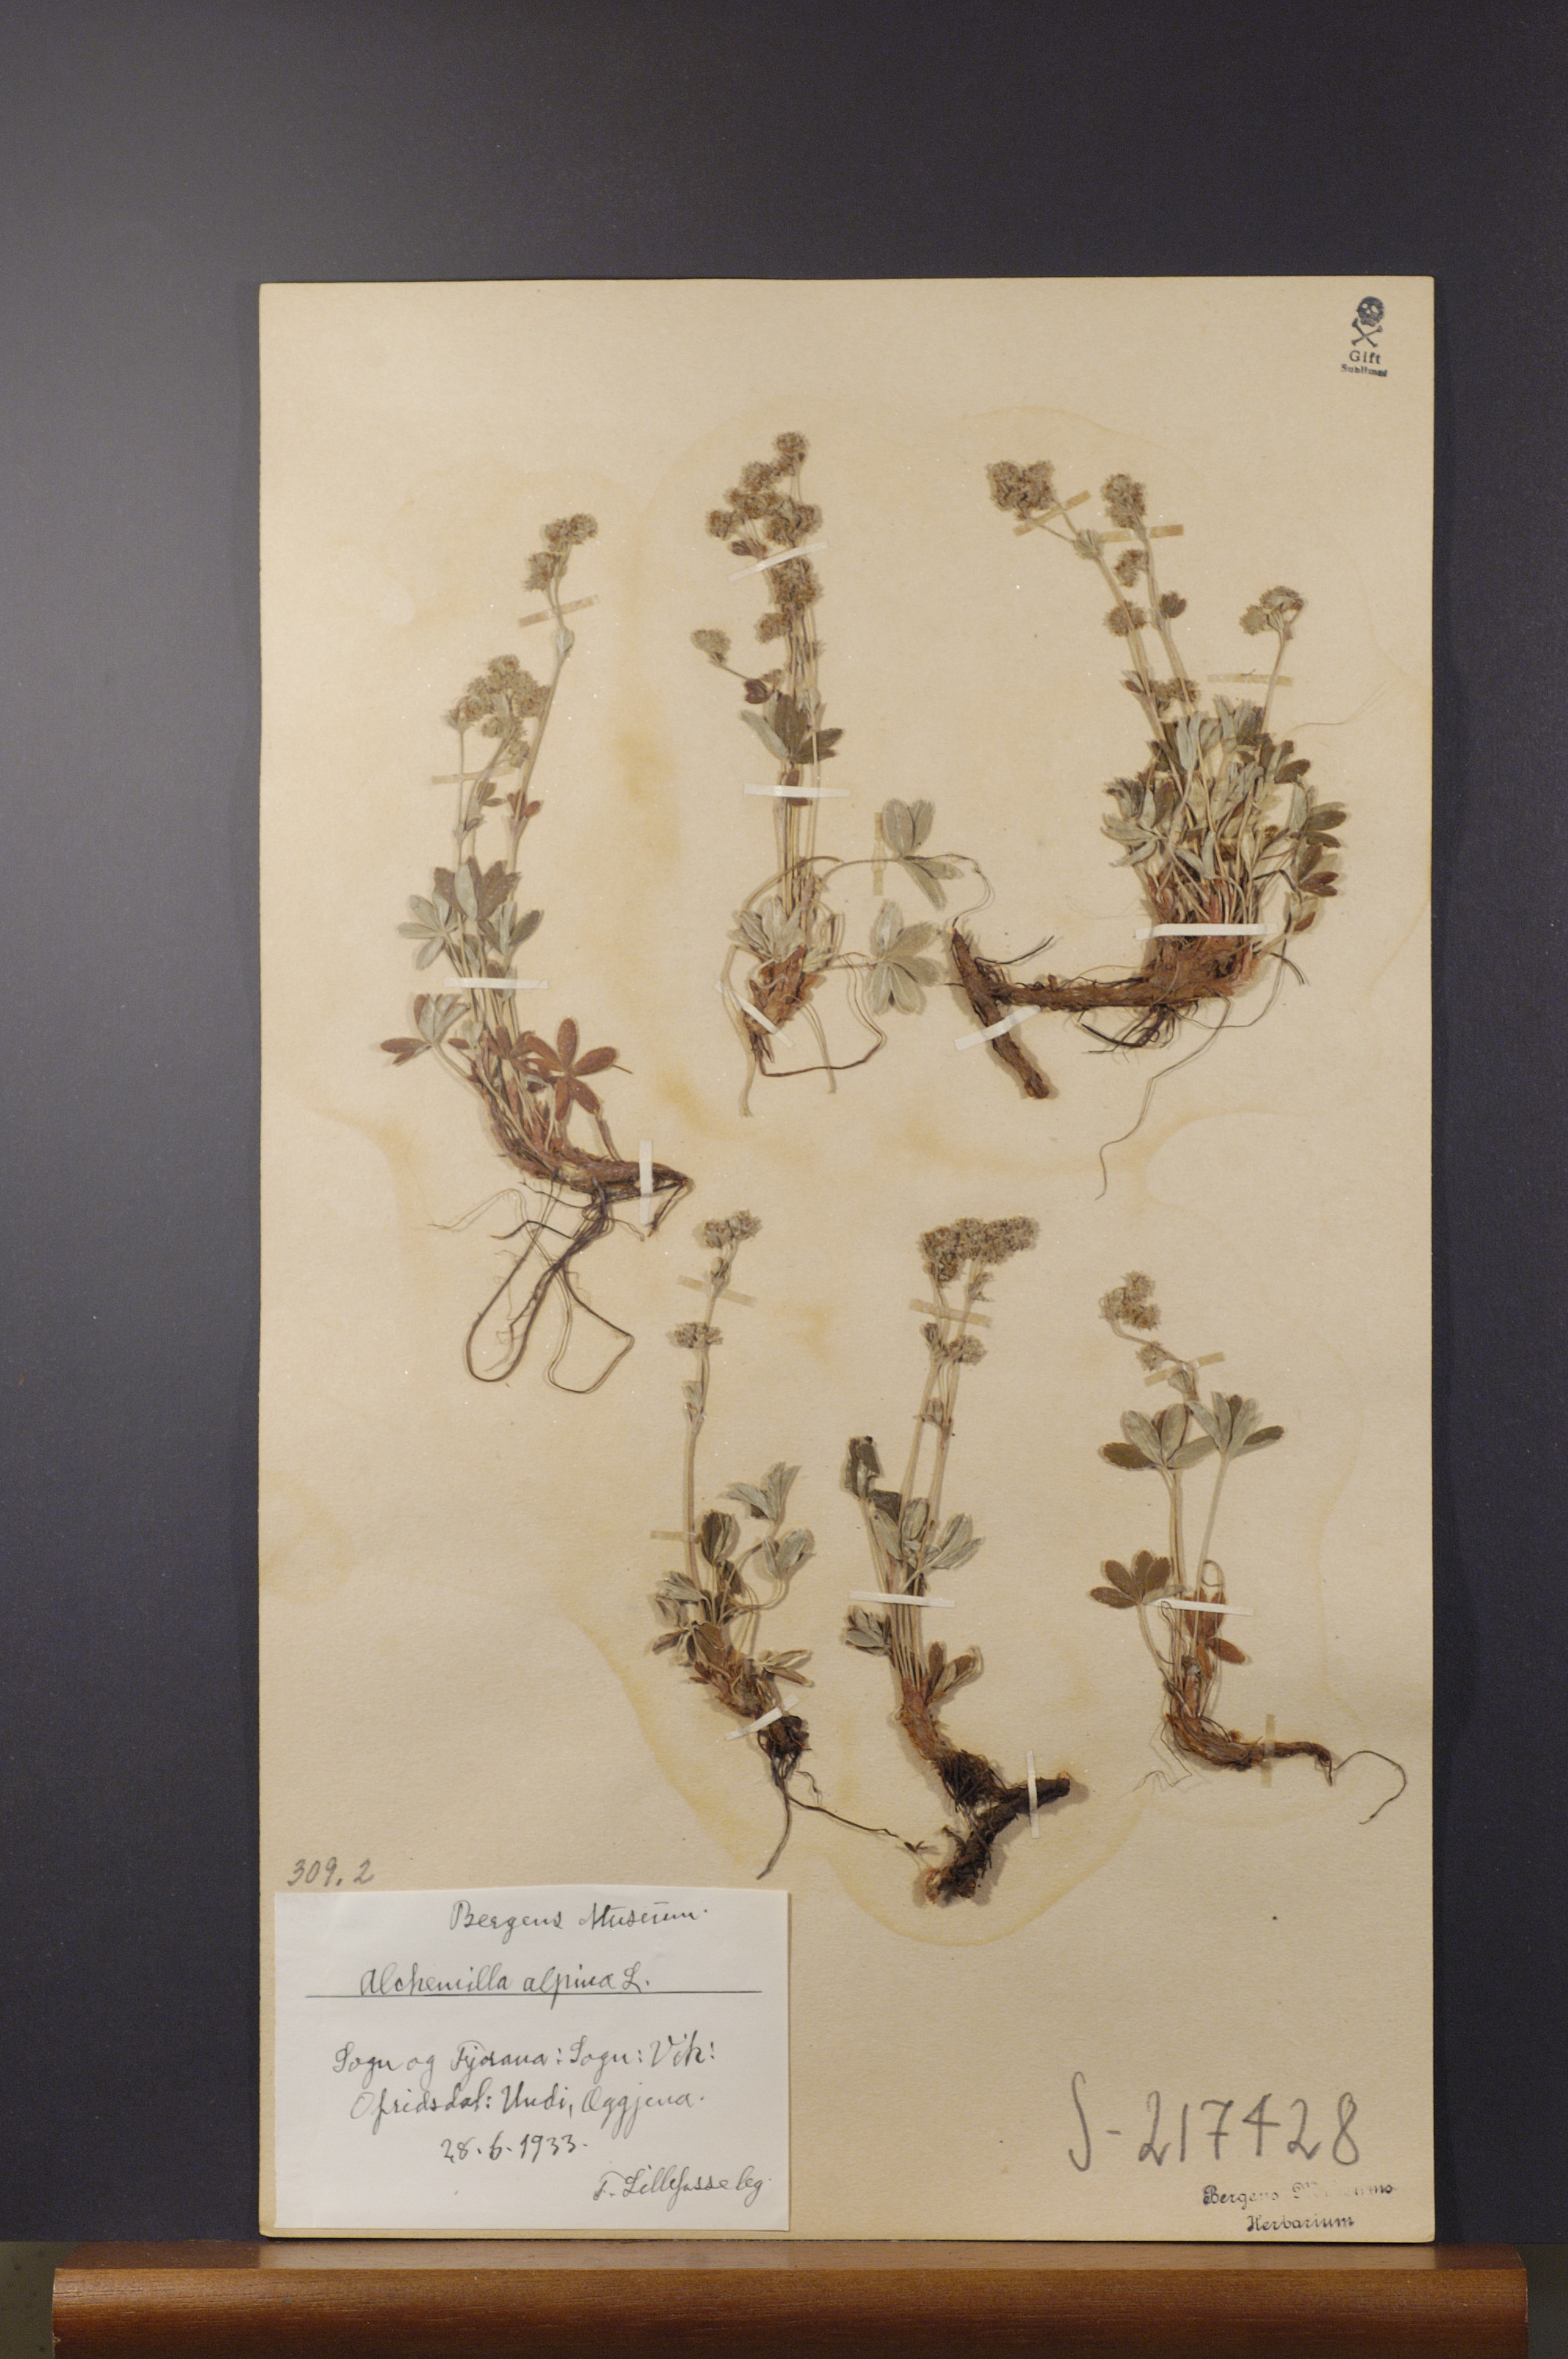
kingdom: Plantae
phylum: Tracheophyta
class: Magnoliopsida
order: Rosales
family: Rosaceae
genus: Alchemilla
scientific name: Alchemilla alpina
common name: Alpine lady's-mantle
